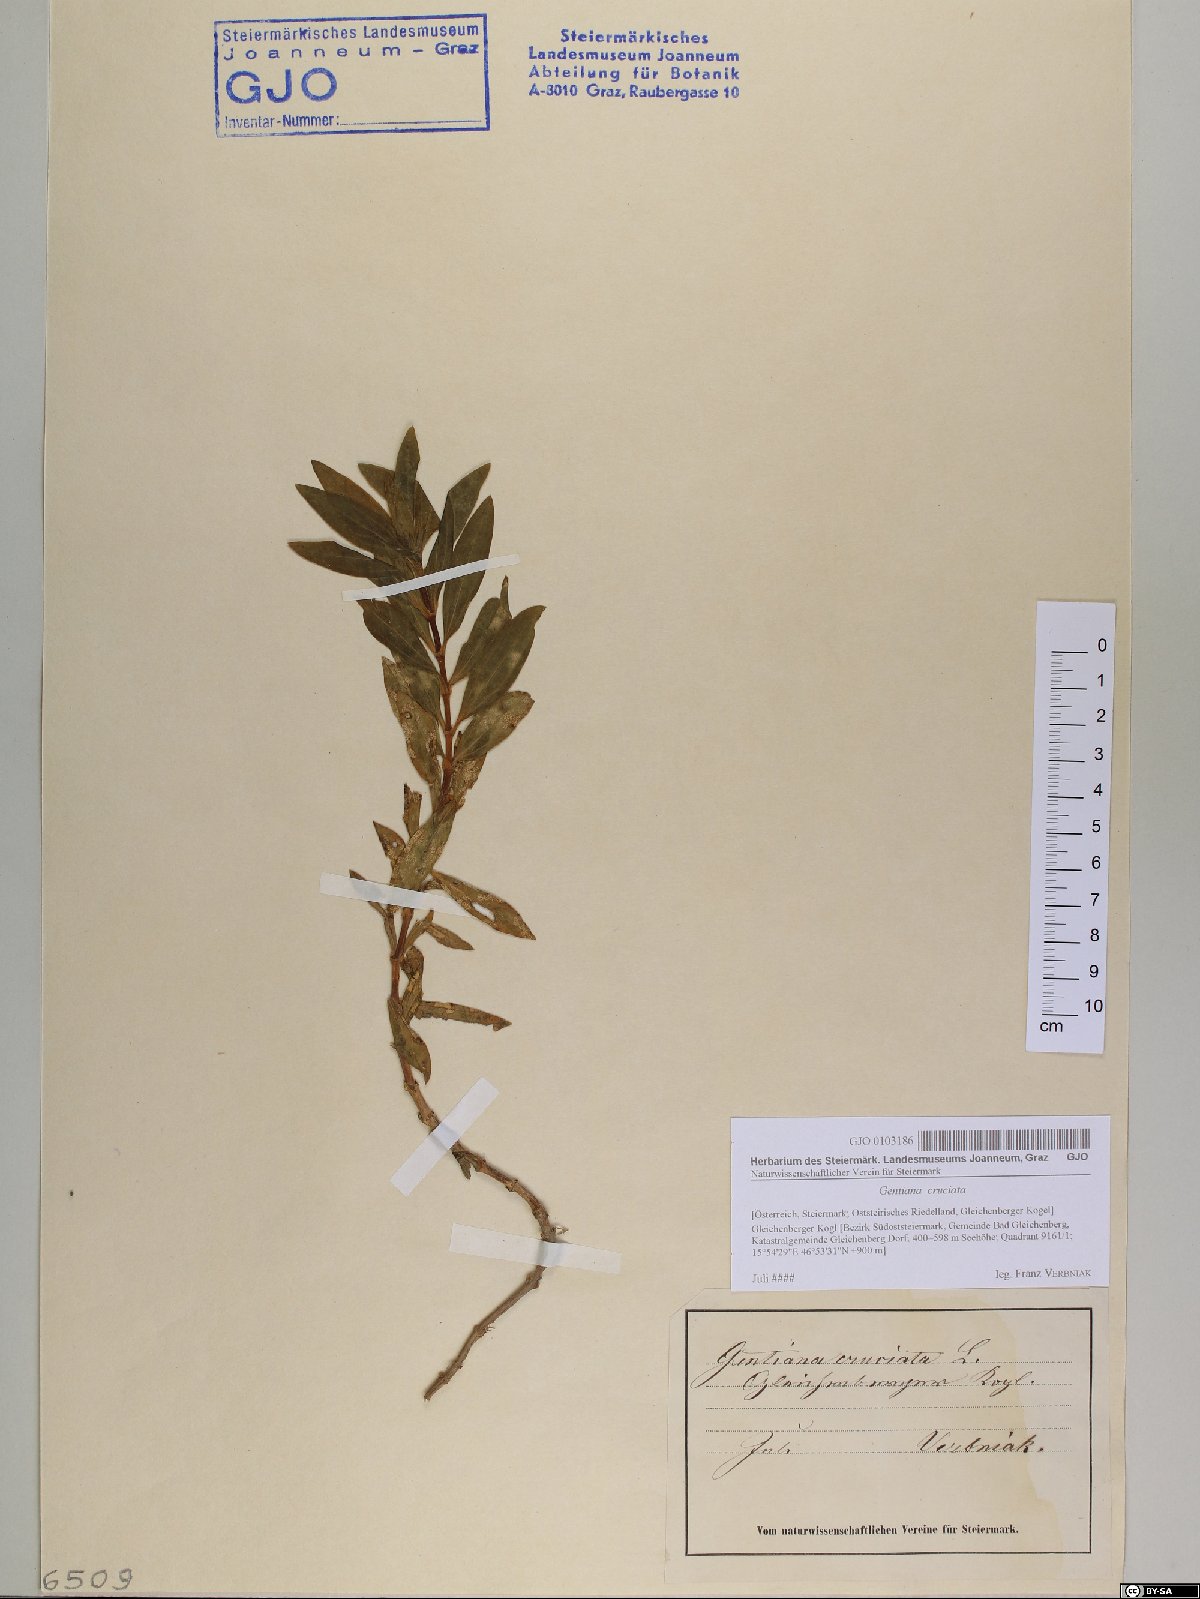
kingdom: Plantae
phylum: Tracheophyta
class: Magnoliopsida
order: Gentianales
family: Gentianaceae
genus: Gentiana
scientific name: Gentiana cruciata
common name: Cross gentian
